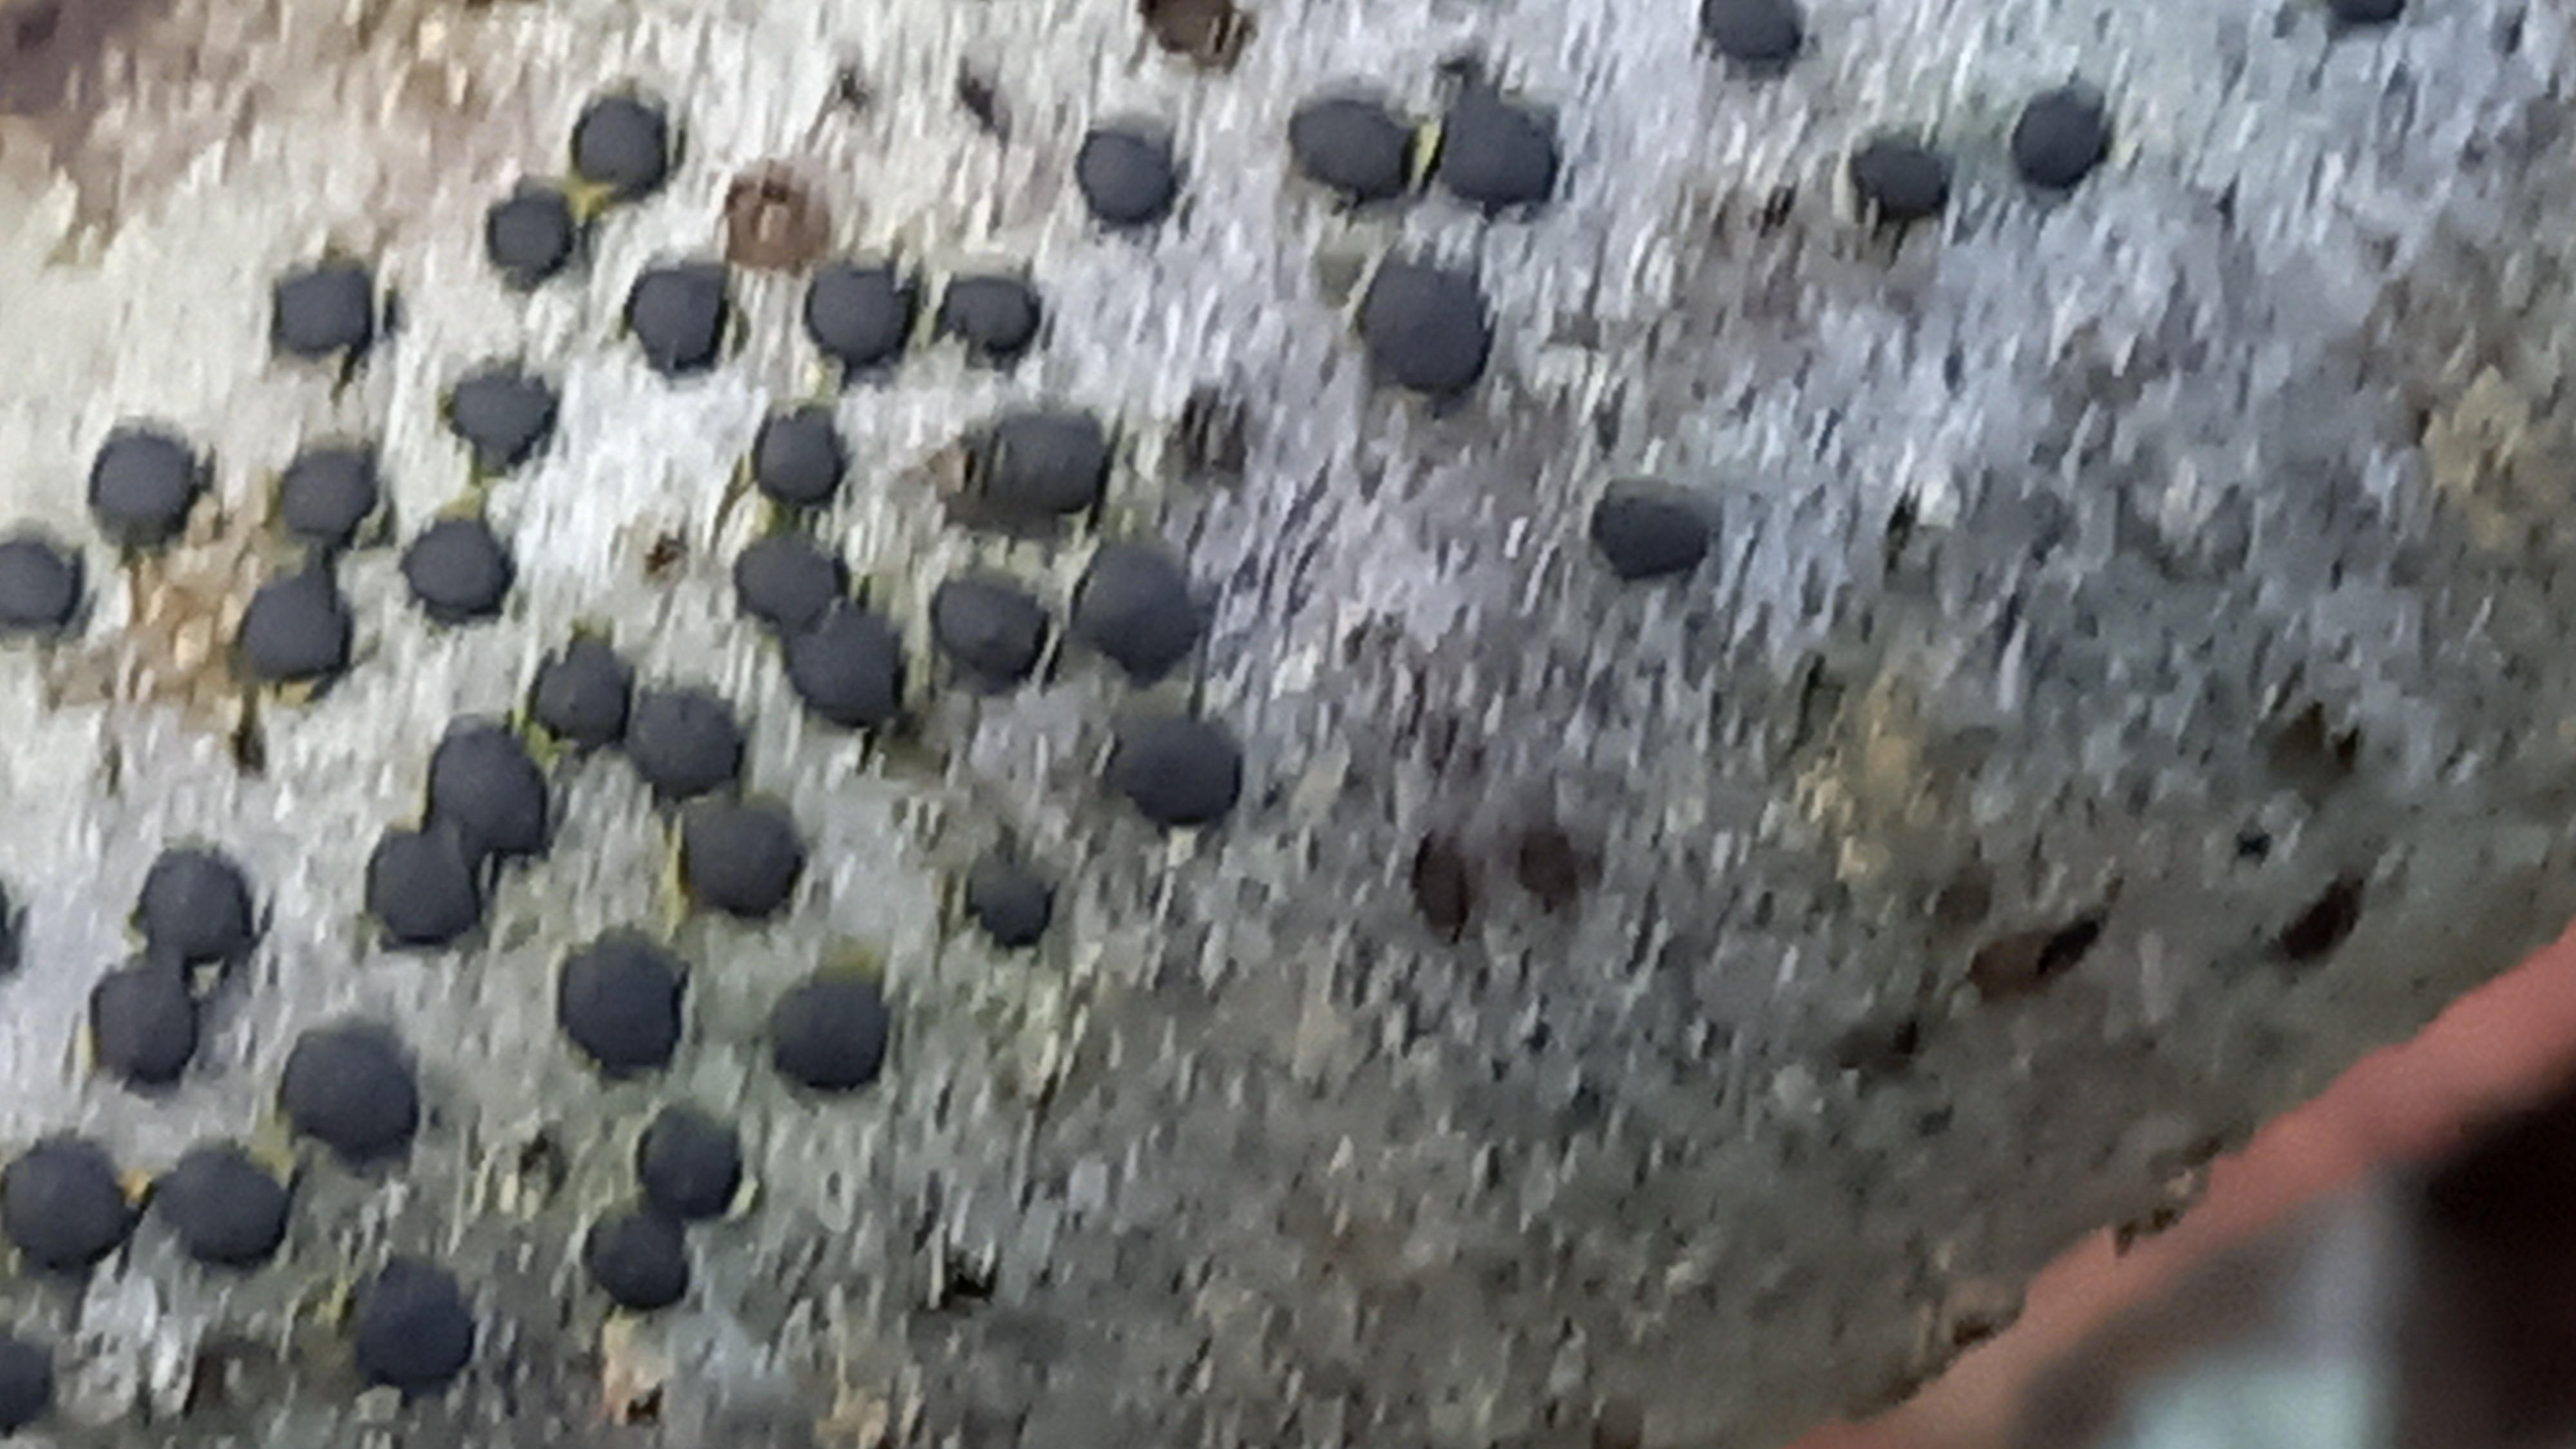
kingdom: Fungi
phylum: Ascomycota
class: Sordariomycetes
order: Xylariales
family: Diatrypaceae
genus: Diatrype
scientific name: Diatrype disciformis
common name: kant-kulskorpe
